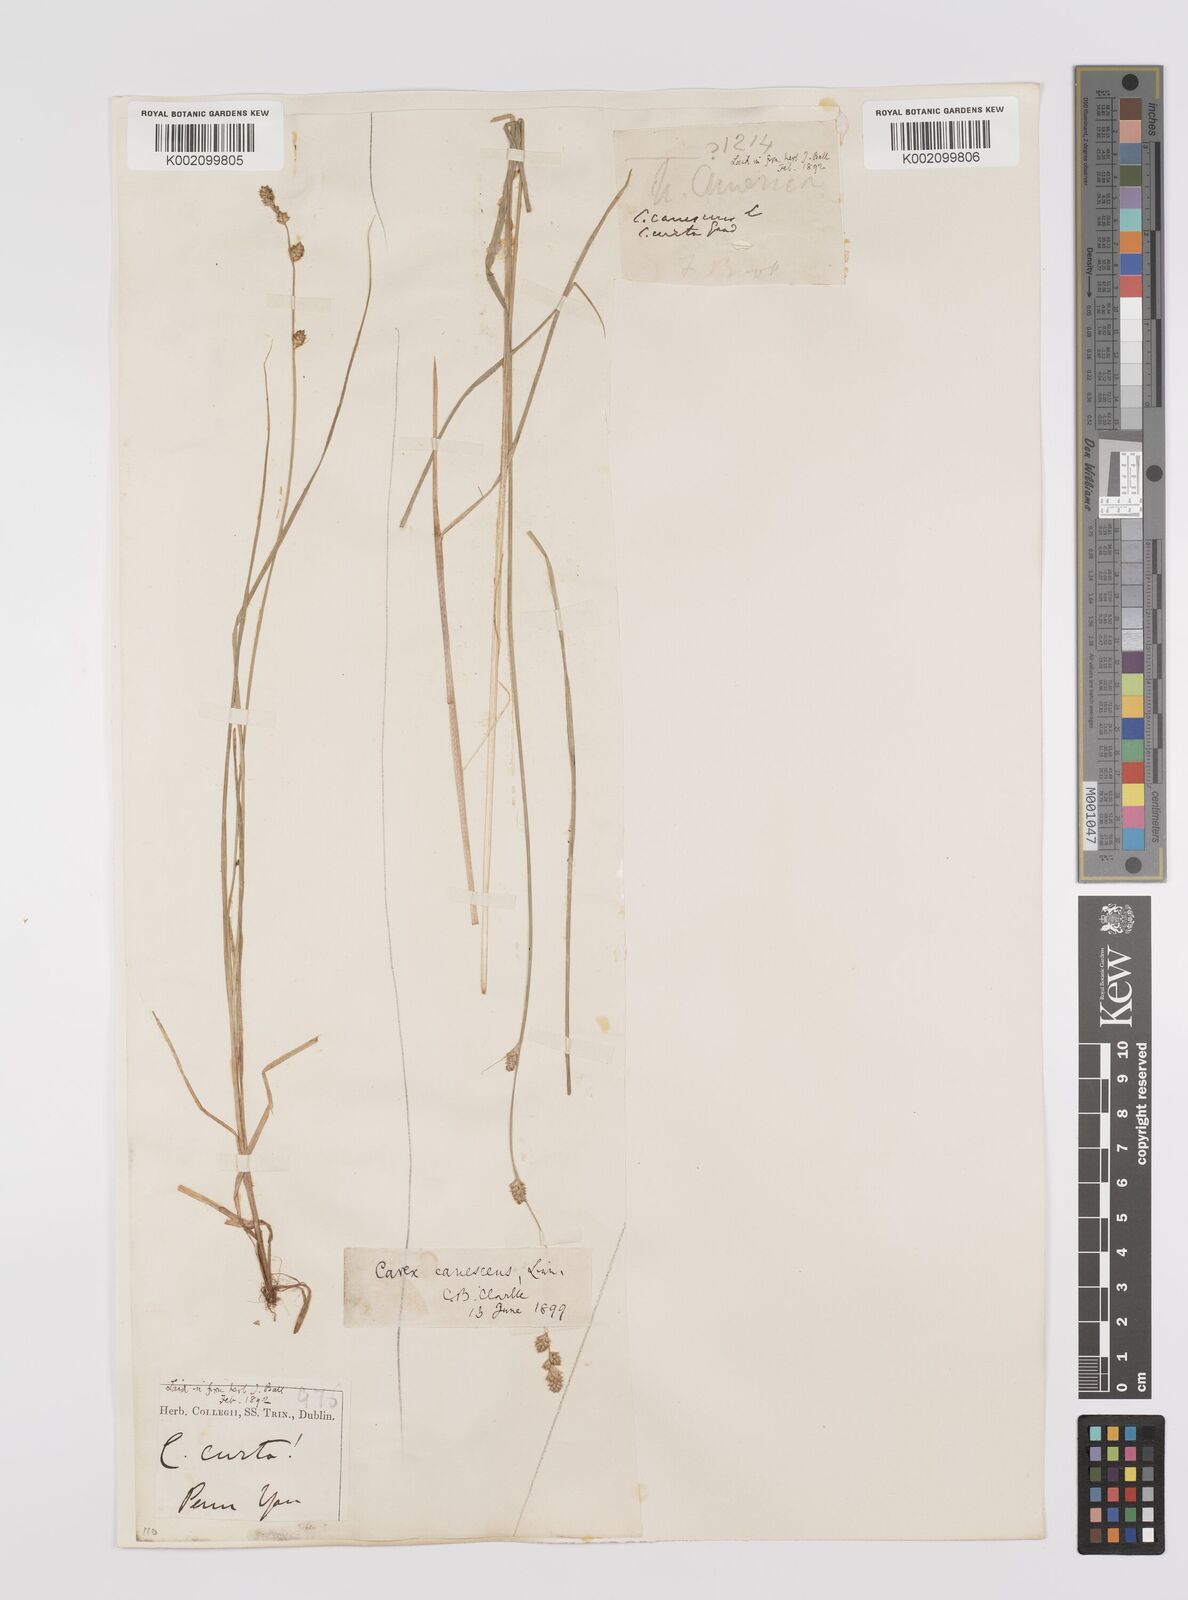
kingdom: Plantae
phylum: Tracheophyta
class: Liliopsida
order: Poales
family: Cyperaceae
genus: Carex
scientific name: Carex curta
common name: White sedge
